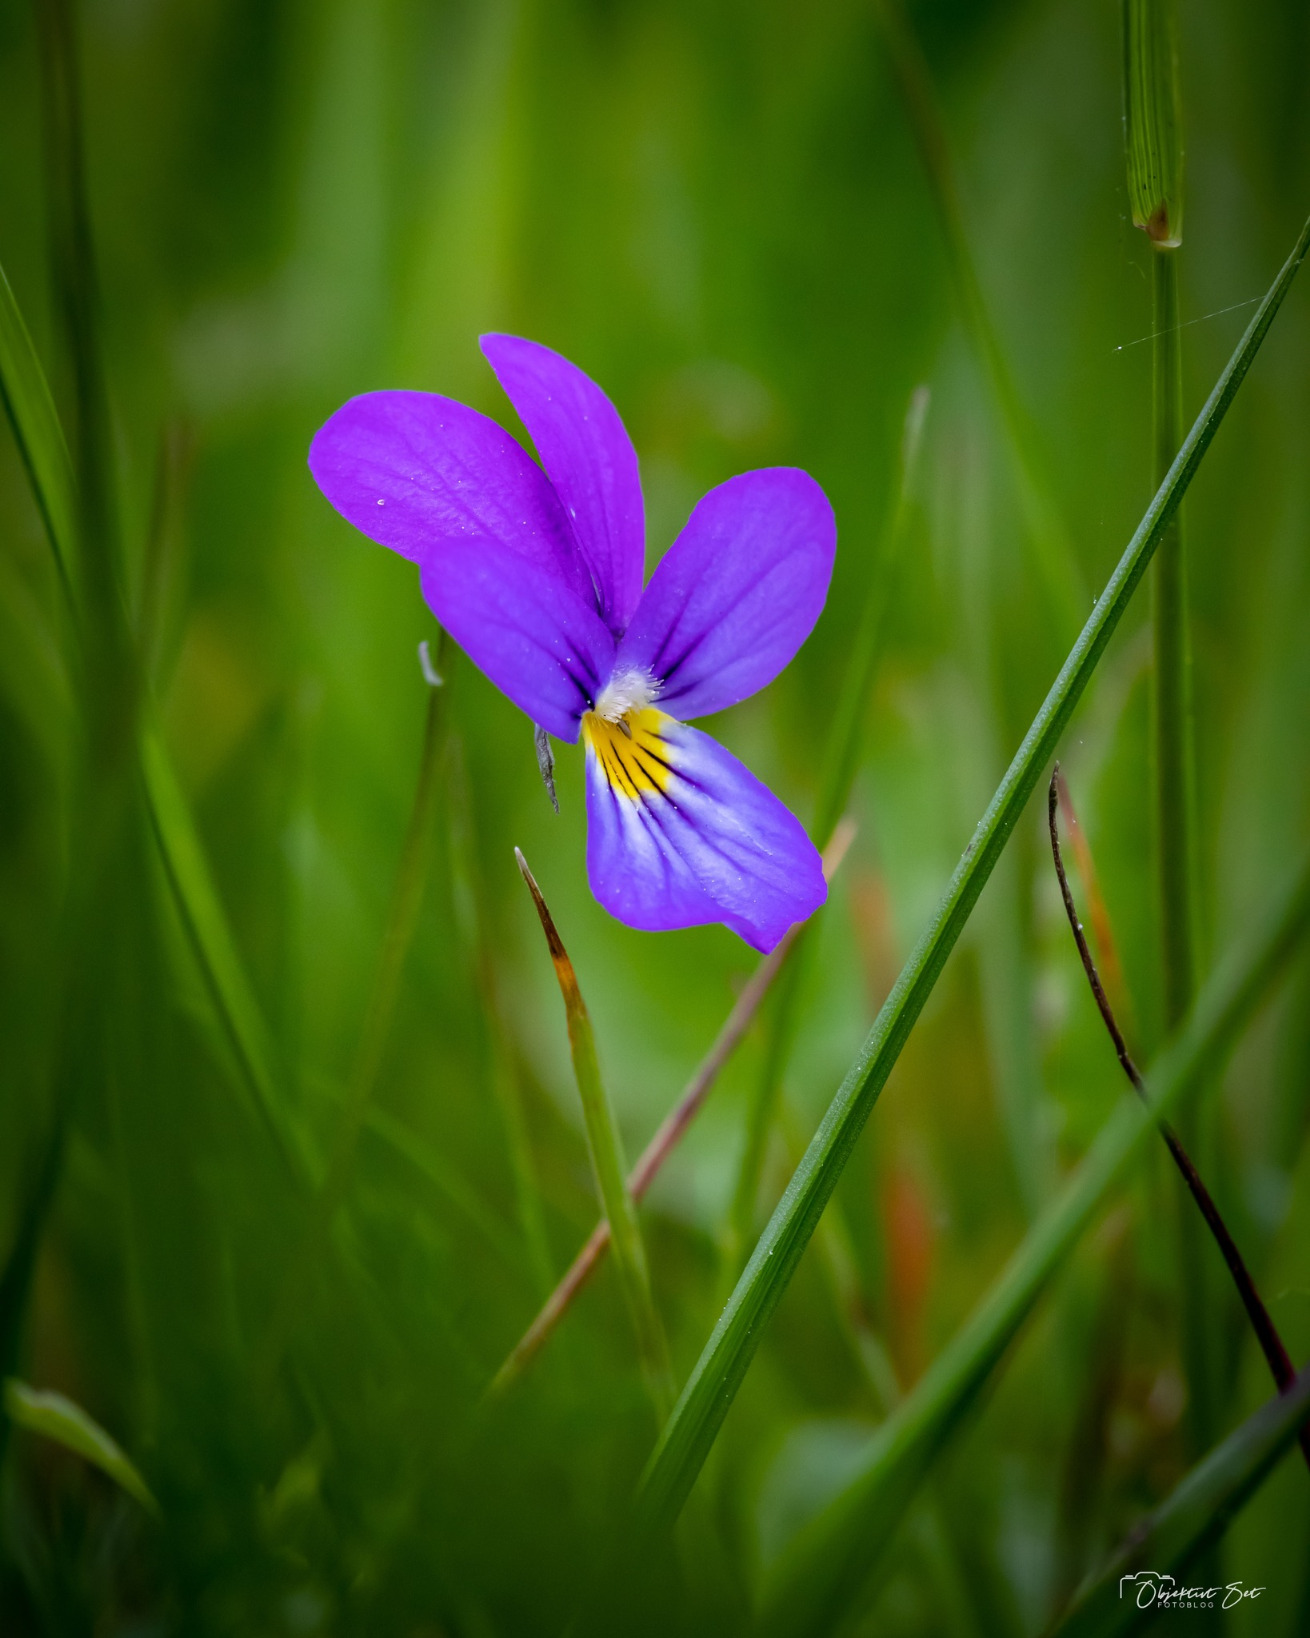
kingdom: Plantae
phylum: Tracheophyta
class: Magnoliopsida
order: Malpighiales
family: Violaceae
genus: Viola
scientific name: Viola tricolor
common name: Stedmoderblomst
